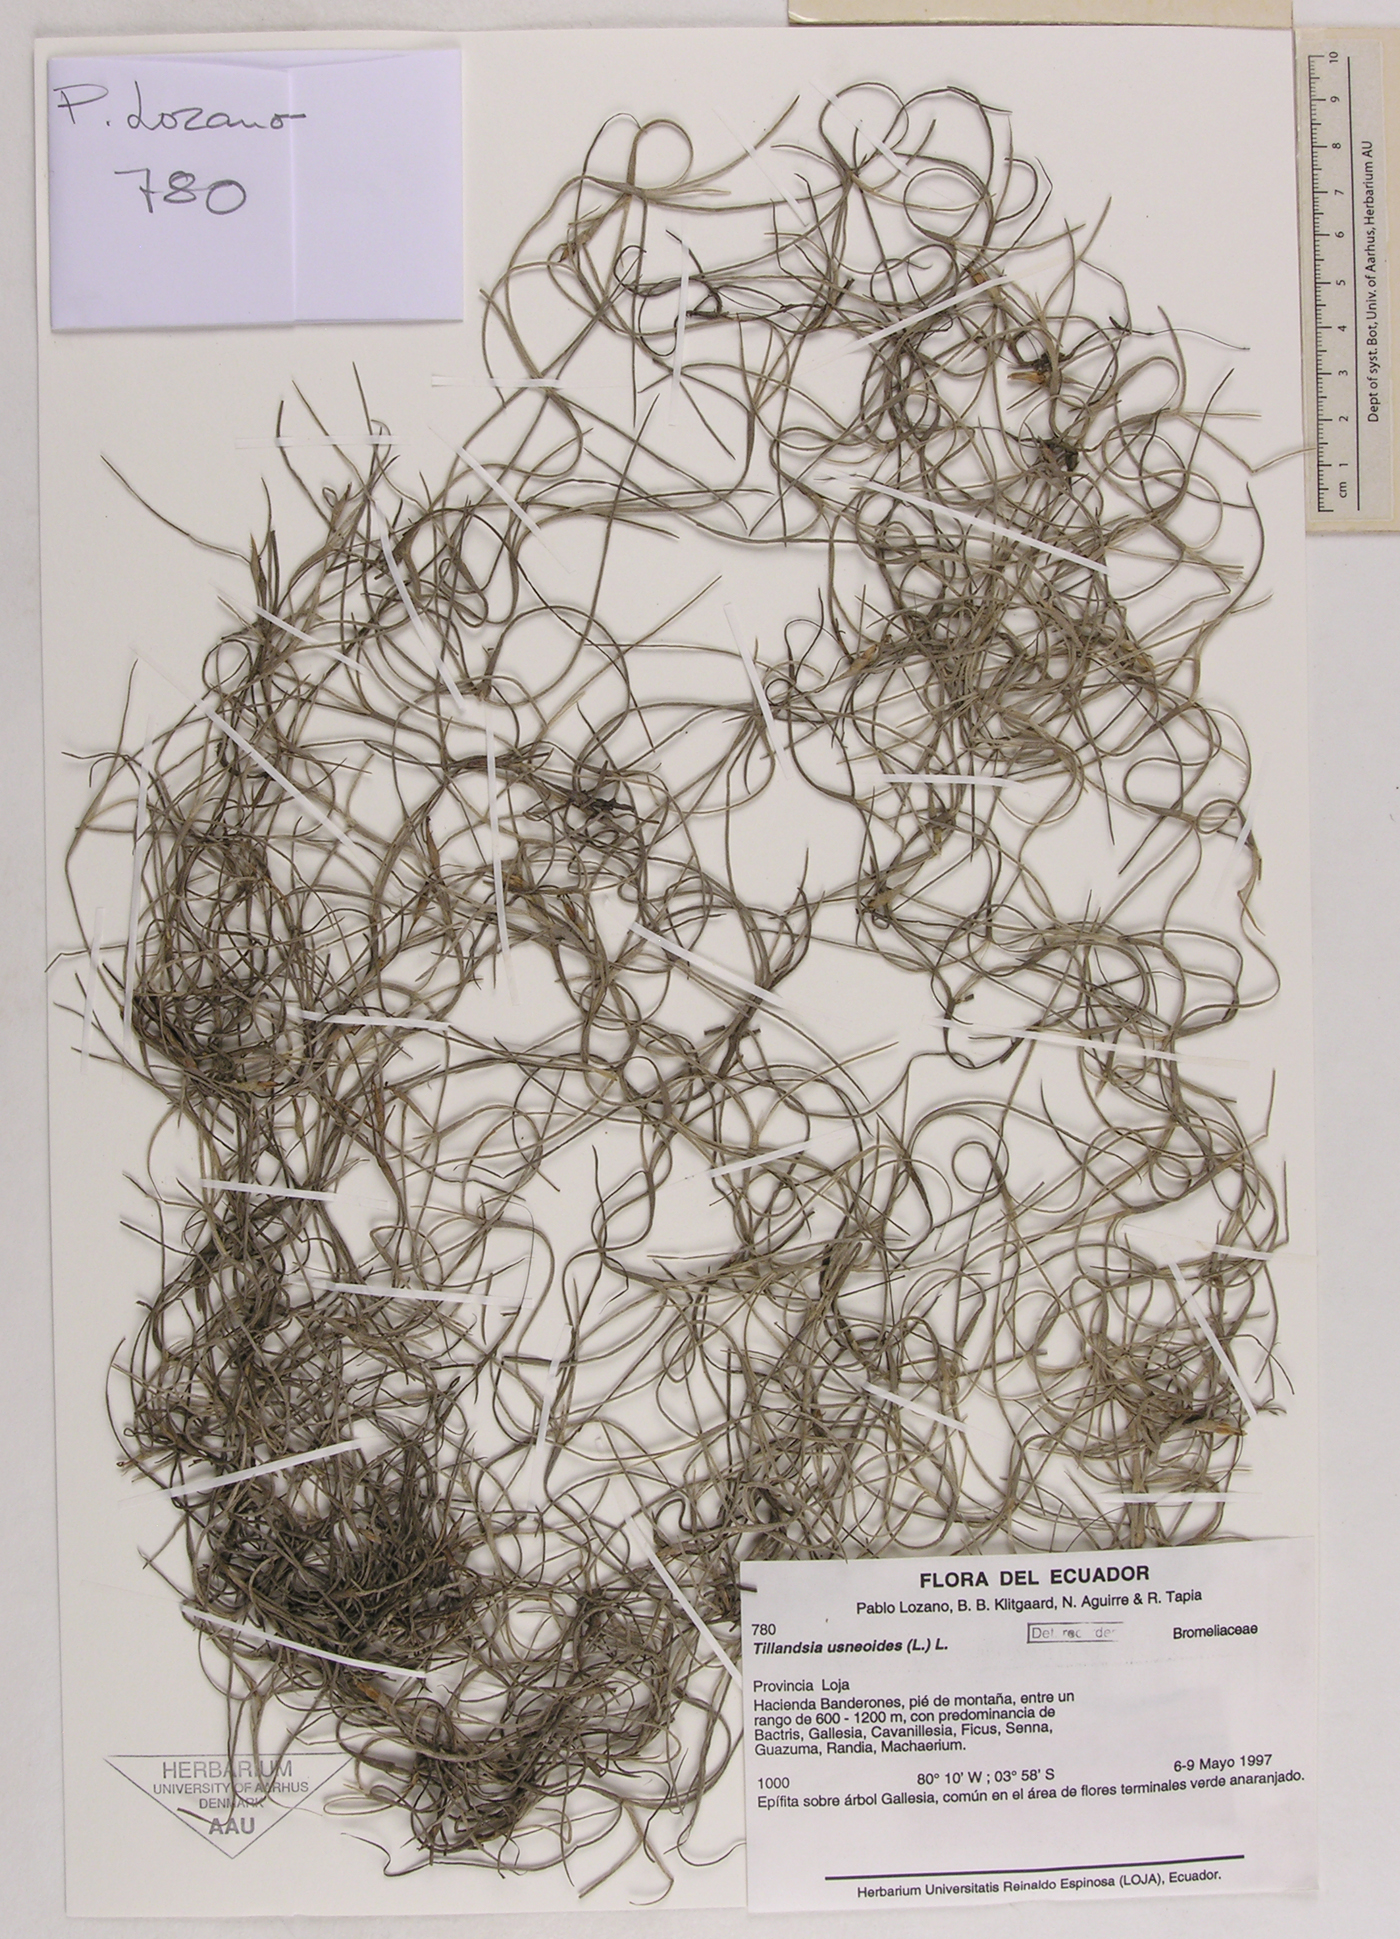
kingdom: Plantae
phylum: Tracheophyta
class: Liliopsida
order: Poales
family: Bromeliaceae
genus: Tillandsia
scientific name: Tillandsia usneoides
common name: Spanish moss
